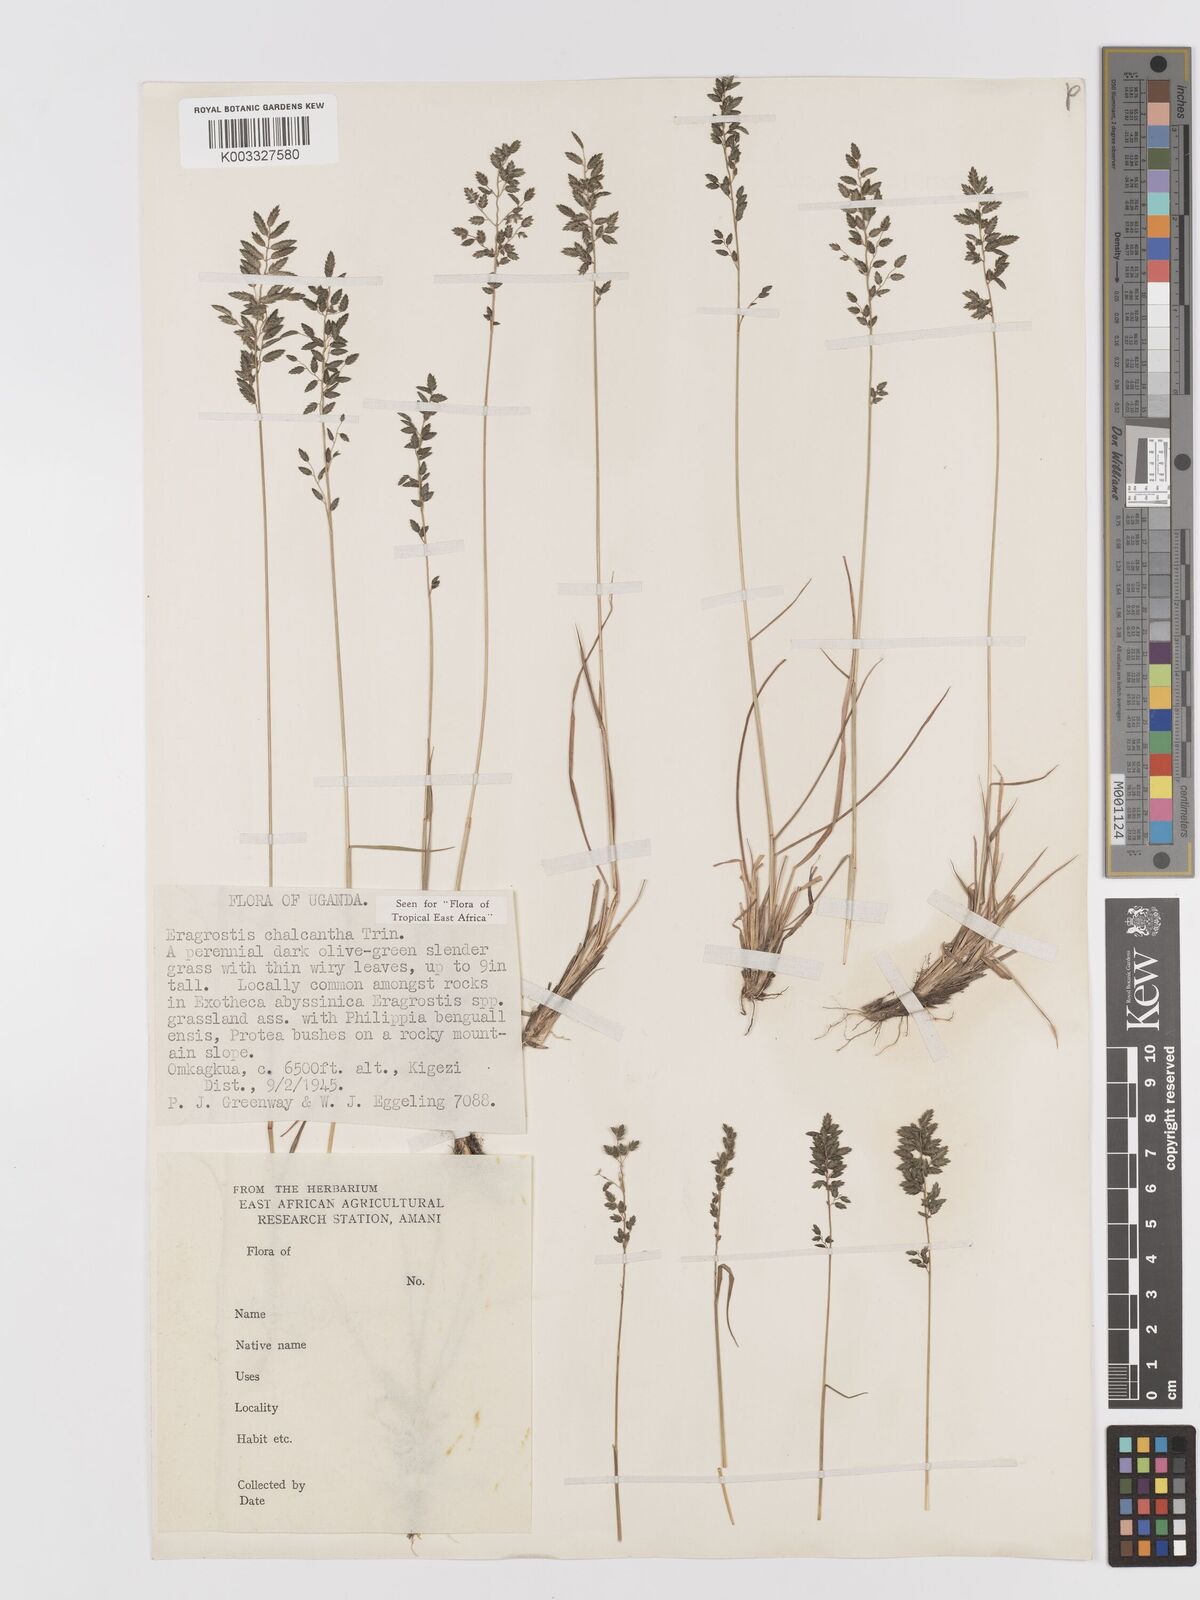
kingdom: Plantae
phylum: Tracheophyta
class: Liliopsida
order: Poales
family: Poaceae
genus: Eragrostis
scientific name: Eragrostis racemosa
